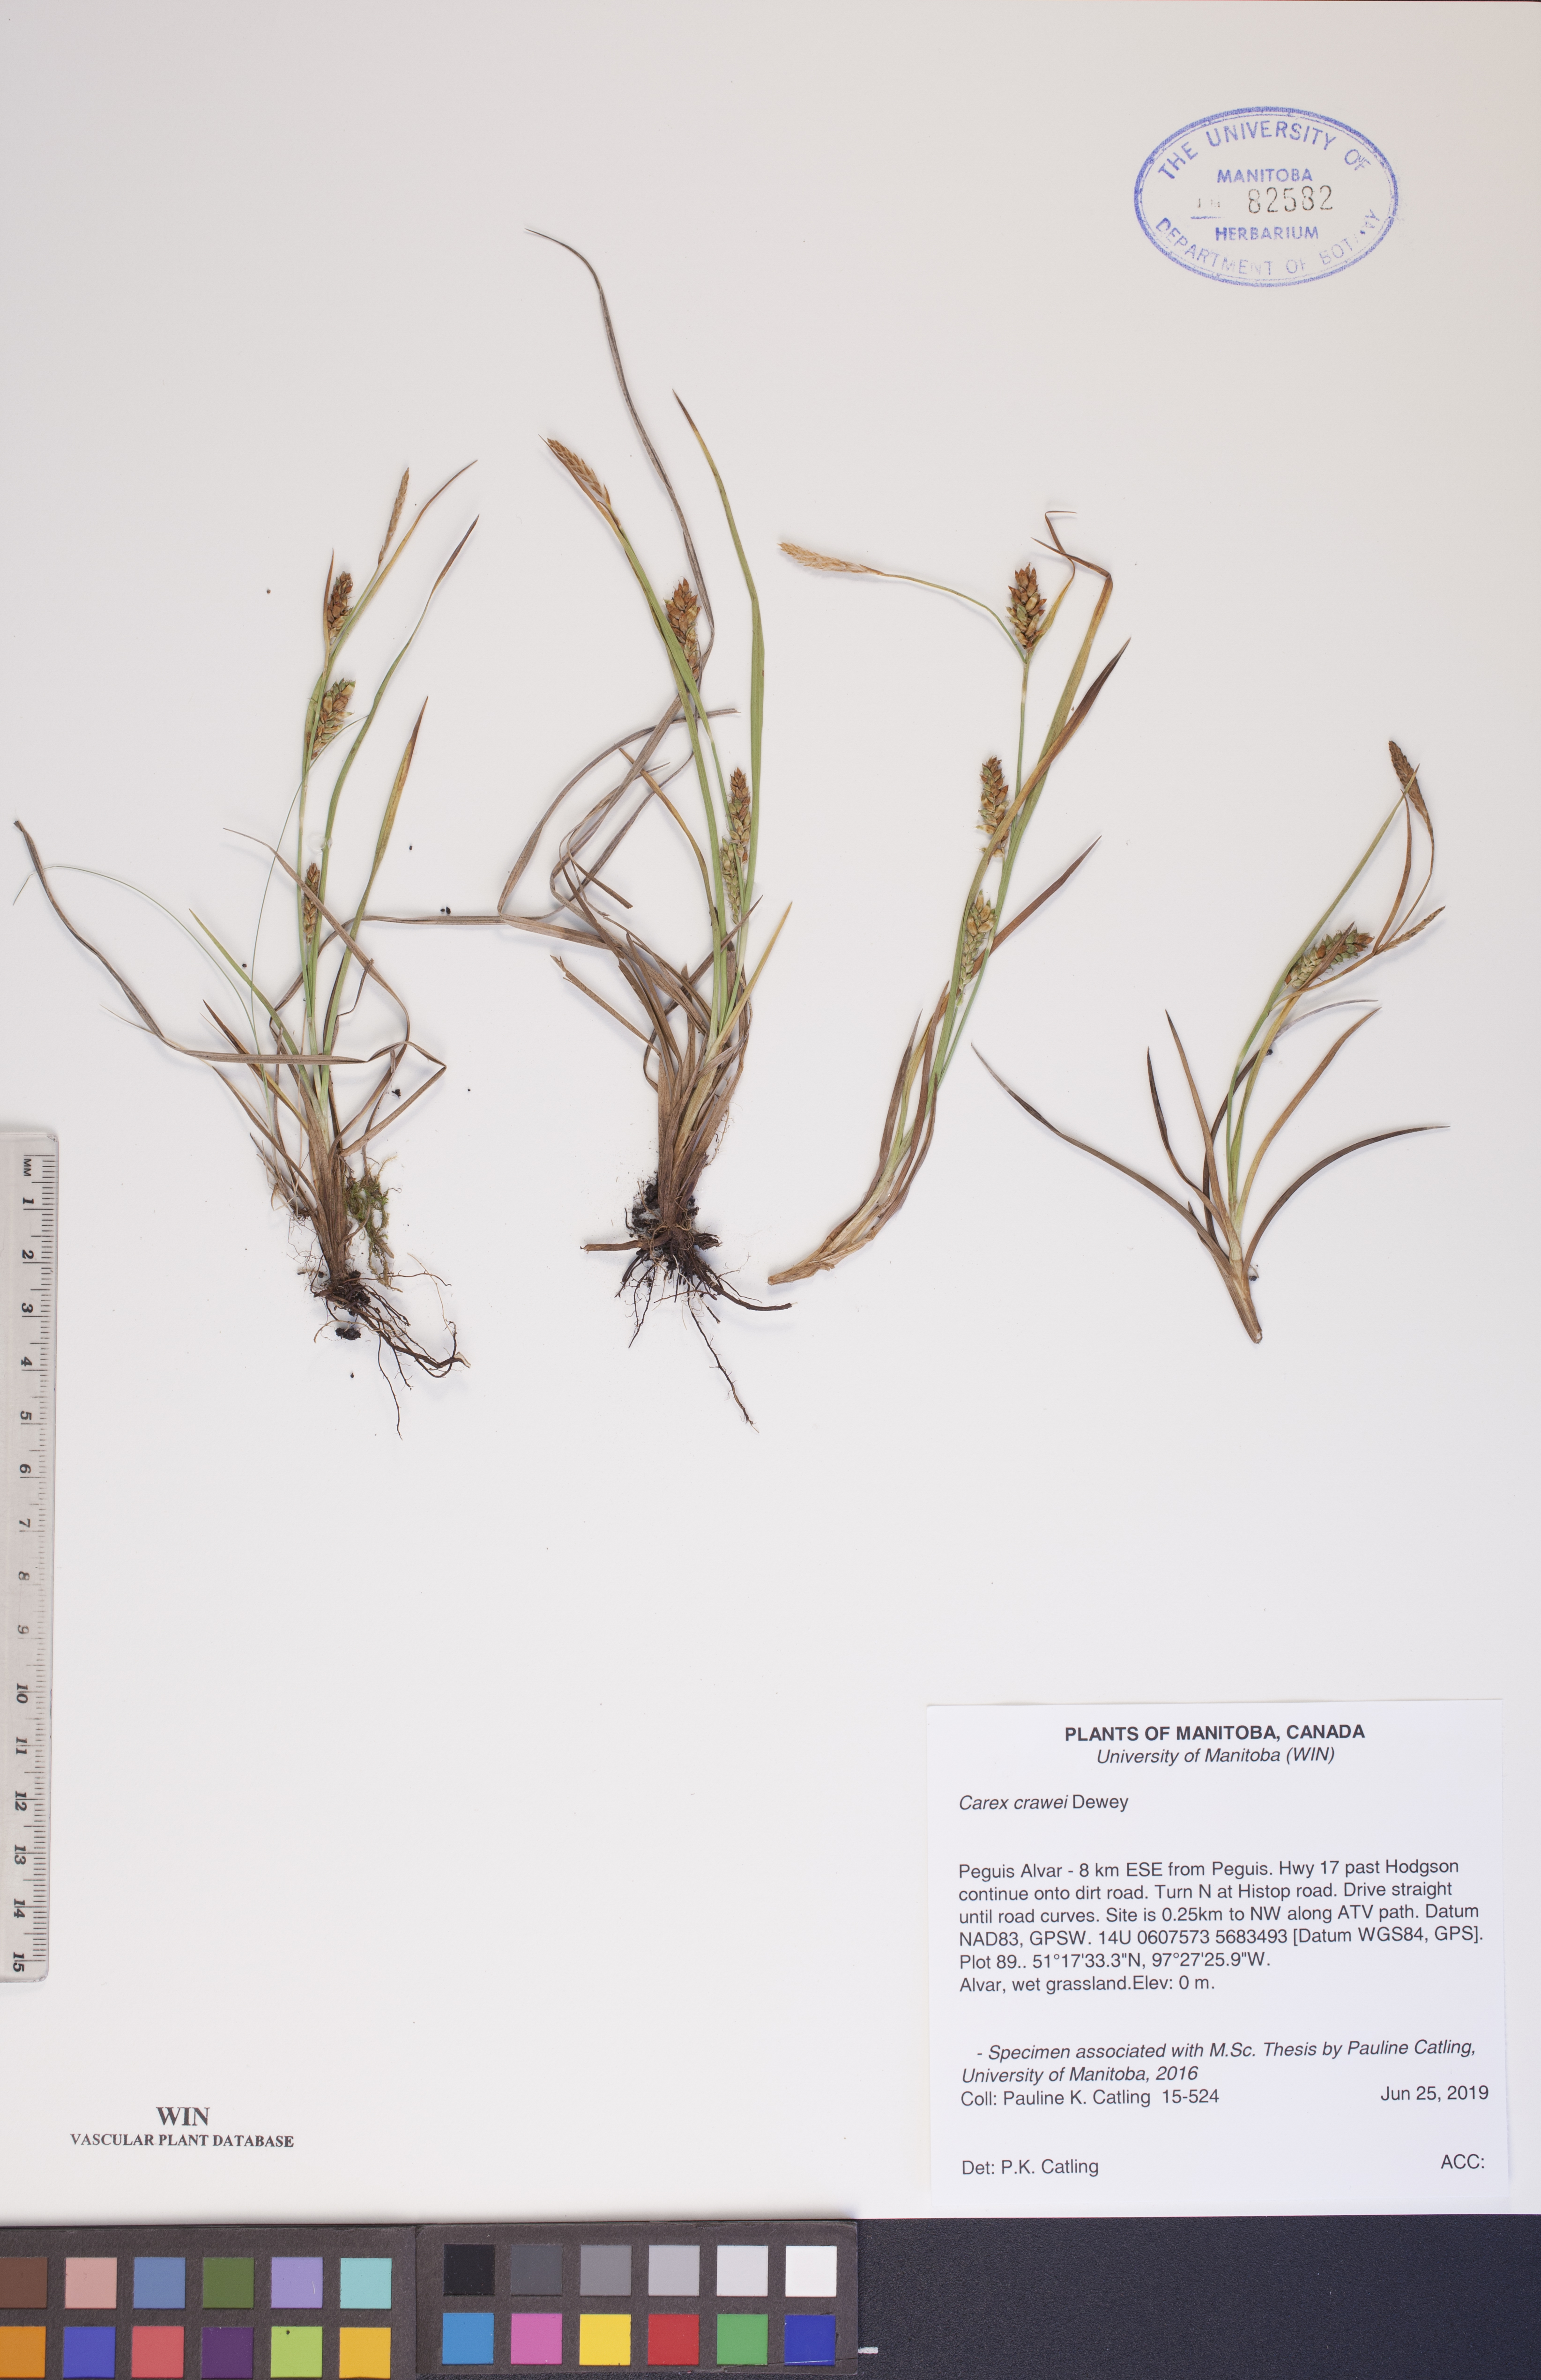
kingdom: Plantae
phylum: Tracheophyta
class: Liliopsida
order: Poales
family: Cyperaceae
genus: Carex
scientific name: Carex crawei
